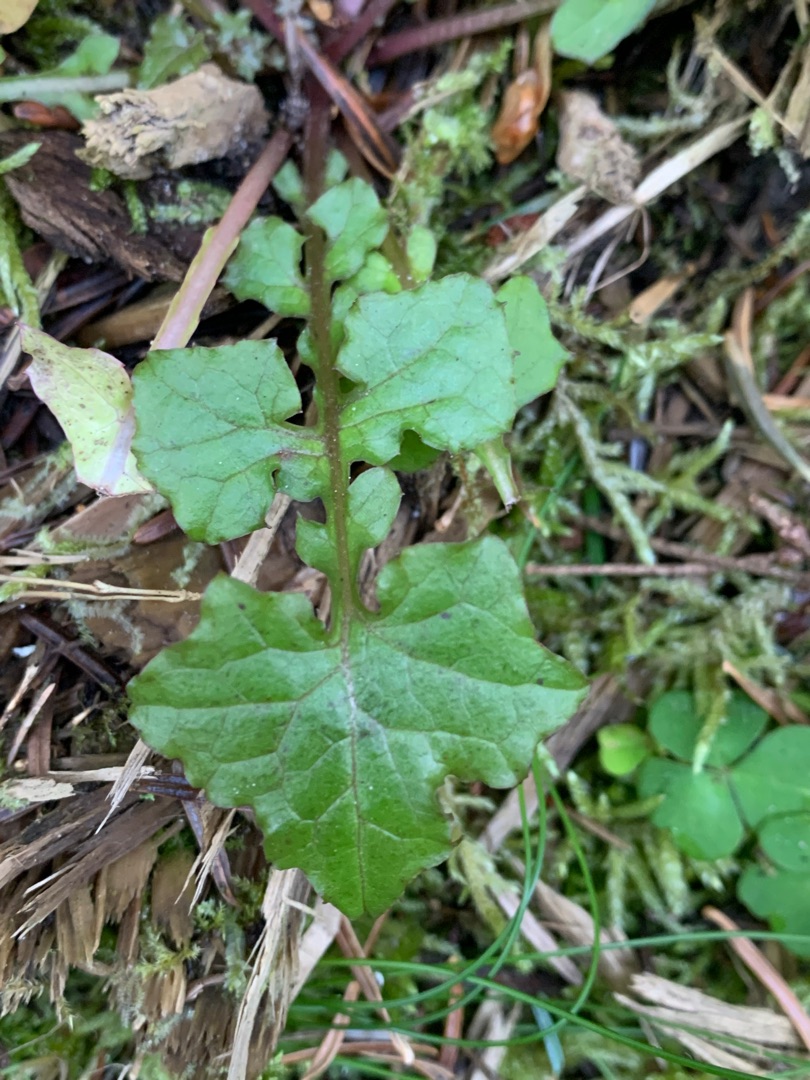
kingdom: Plantae
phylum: Tracheophyta
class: Magnoliopsida
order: Asterales
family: Asteraceae
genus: Mycelis
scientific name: Mycelis muralis
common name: Skov-salat
